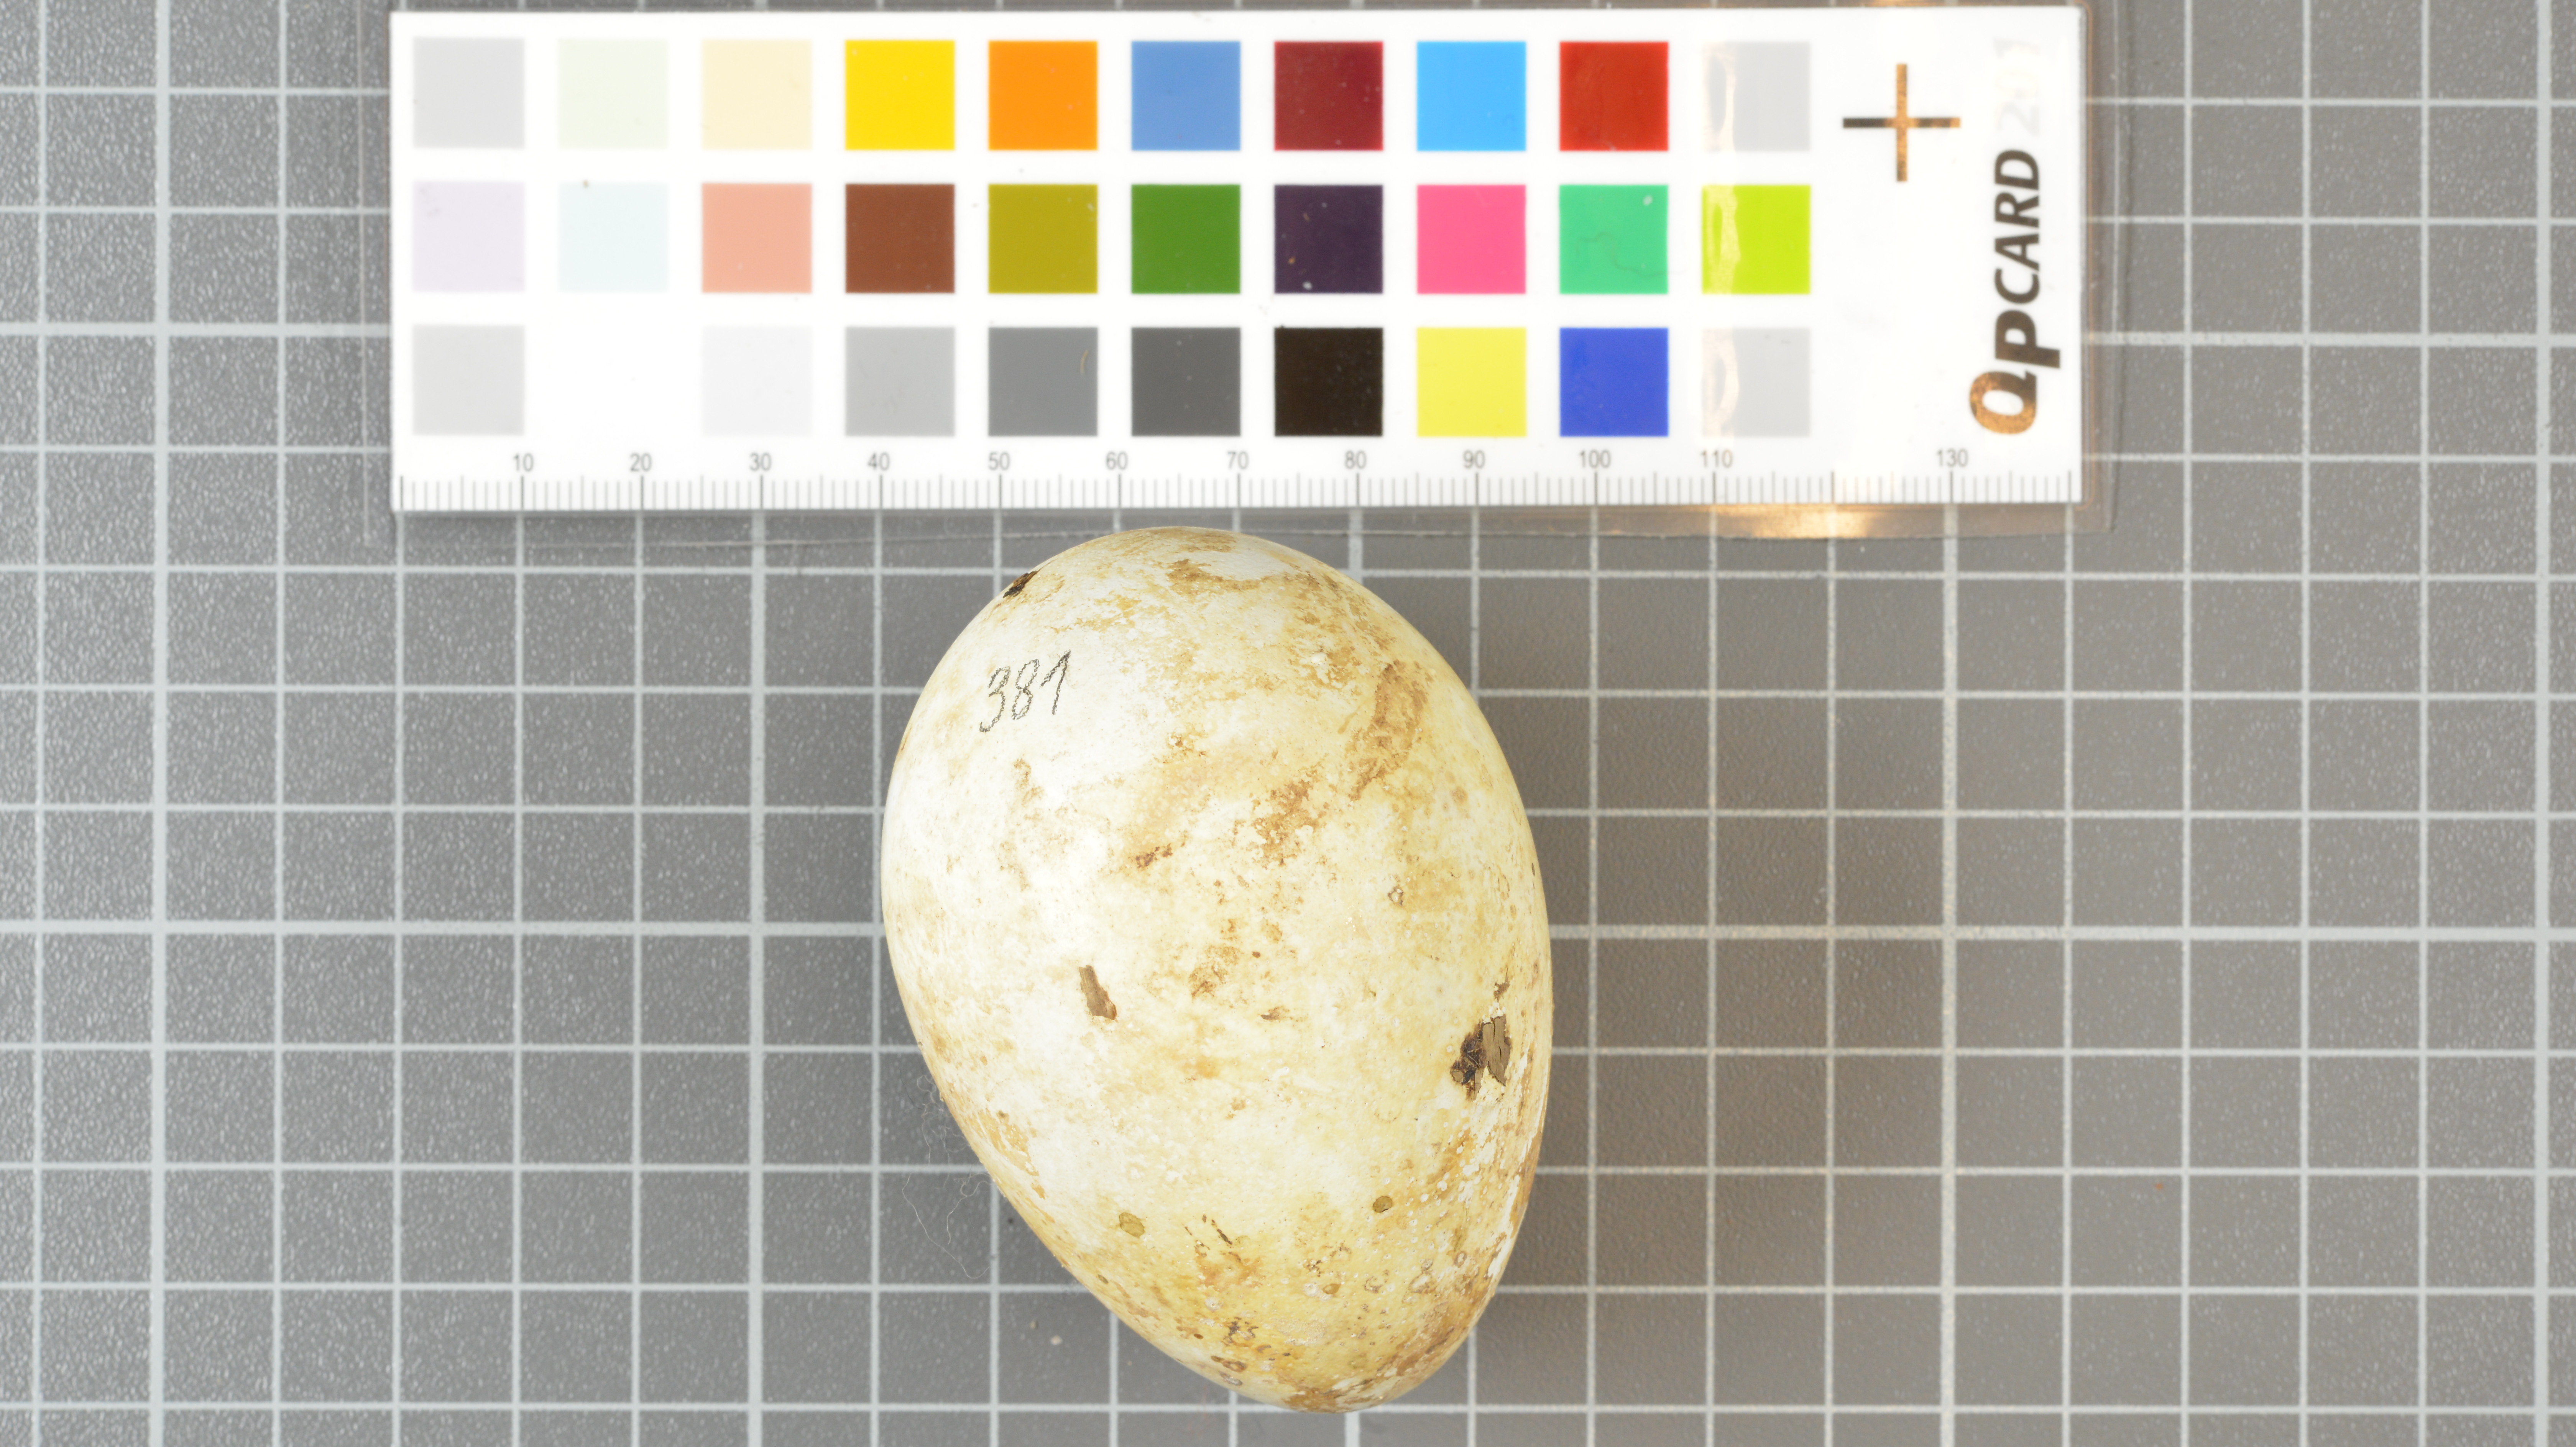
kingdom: Animalia
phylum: Chordata
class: Aves
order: Sphenisciformes
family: Spheniscidae
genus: Eudyptes
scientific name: Eudyptes moseleyi
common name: Northern rockhopper penguin
